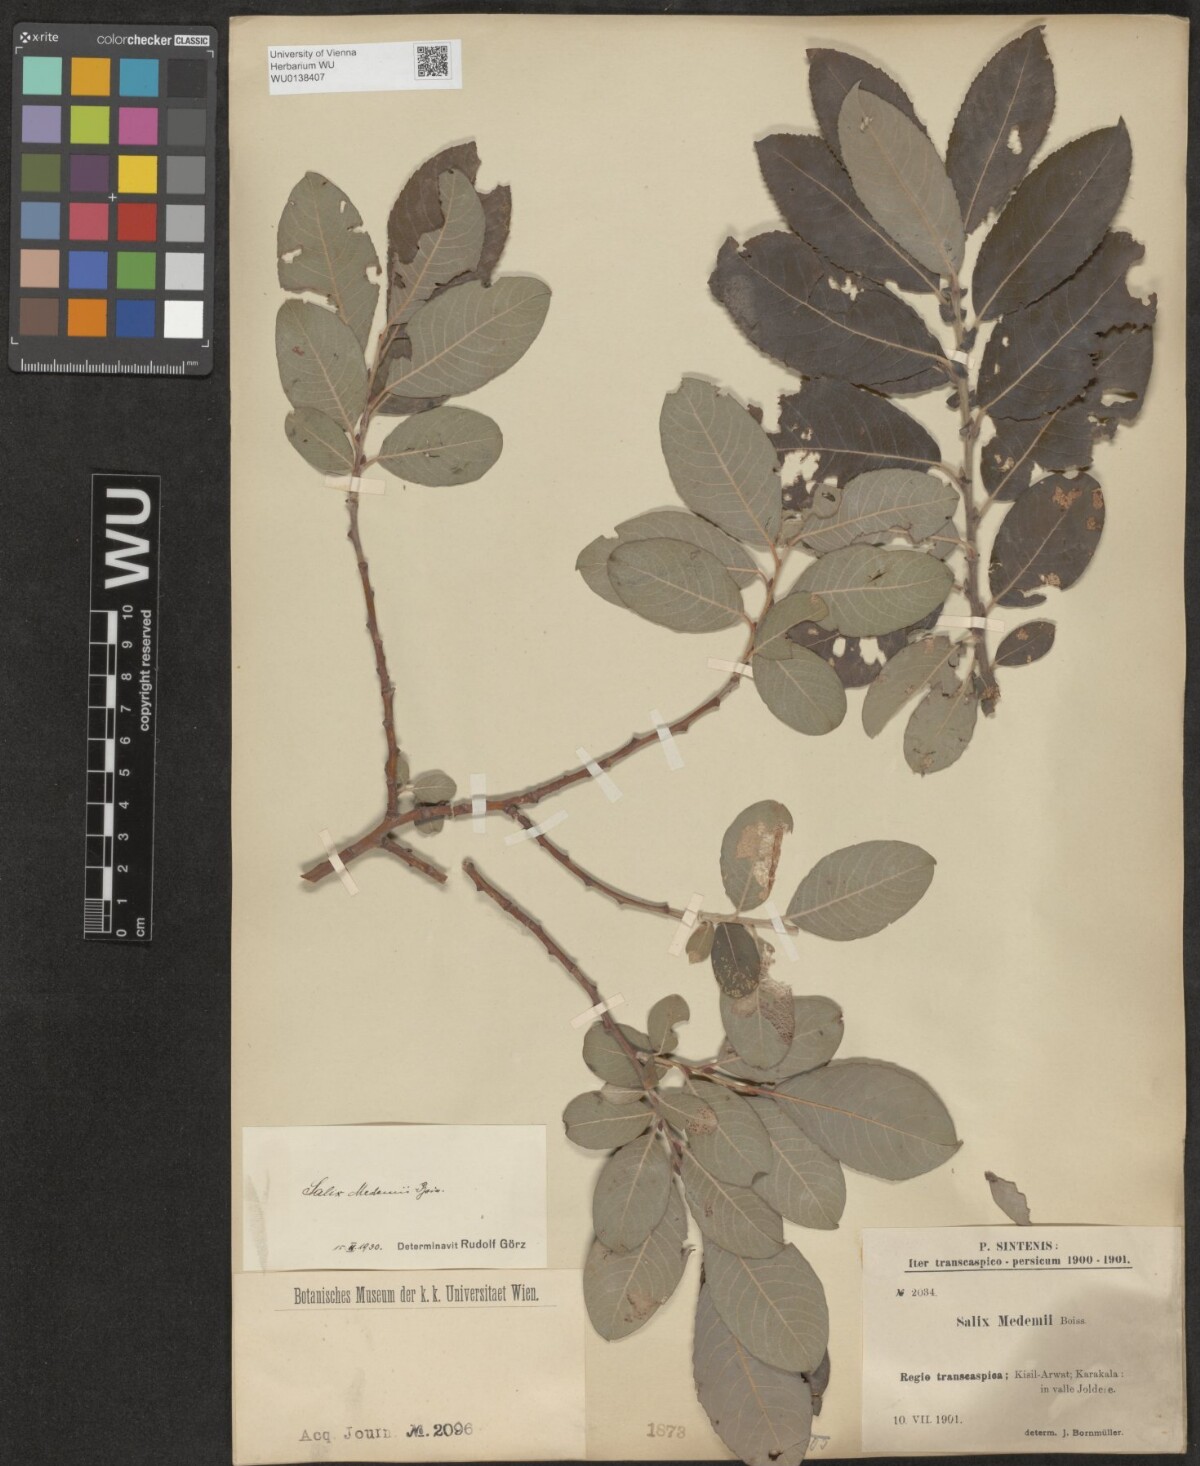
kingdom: Plantae
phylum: Tracheophyta
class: Magnoliopsida
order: Malpighiales
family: Salicaceae
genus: Salix
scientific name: Salix aegyptiaca
